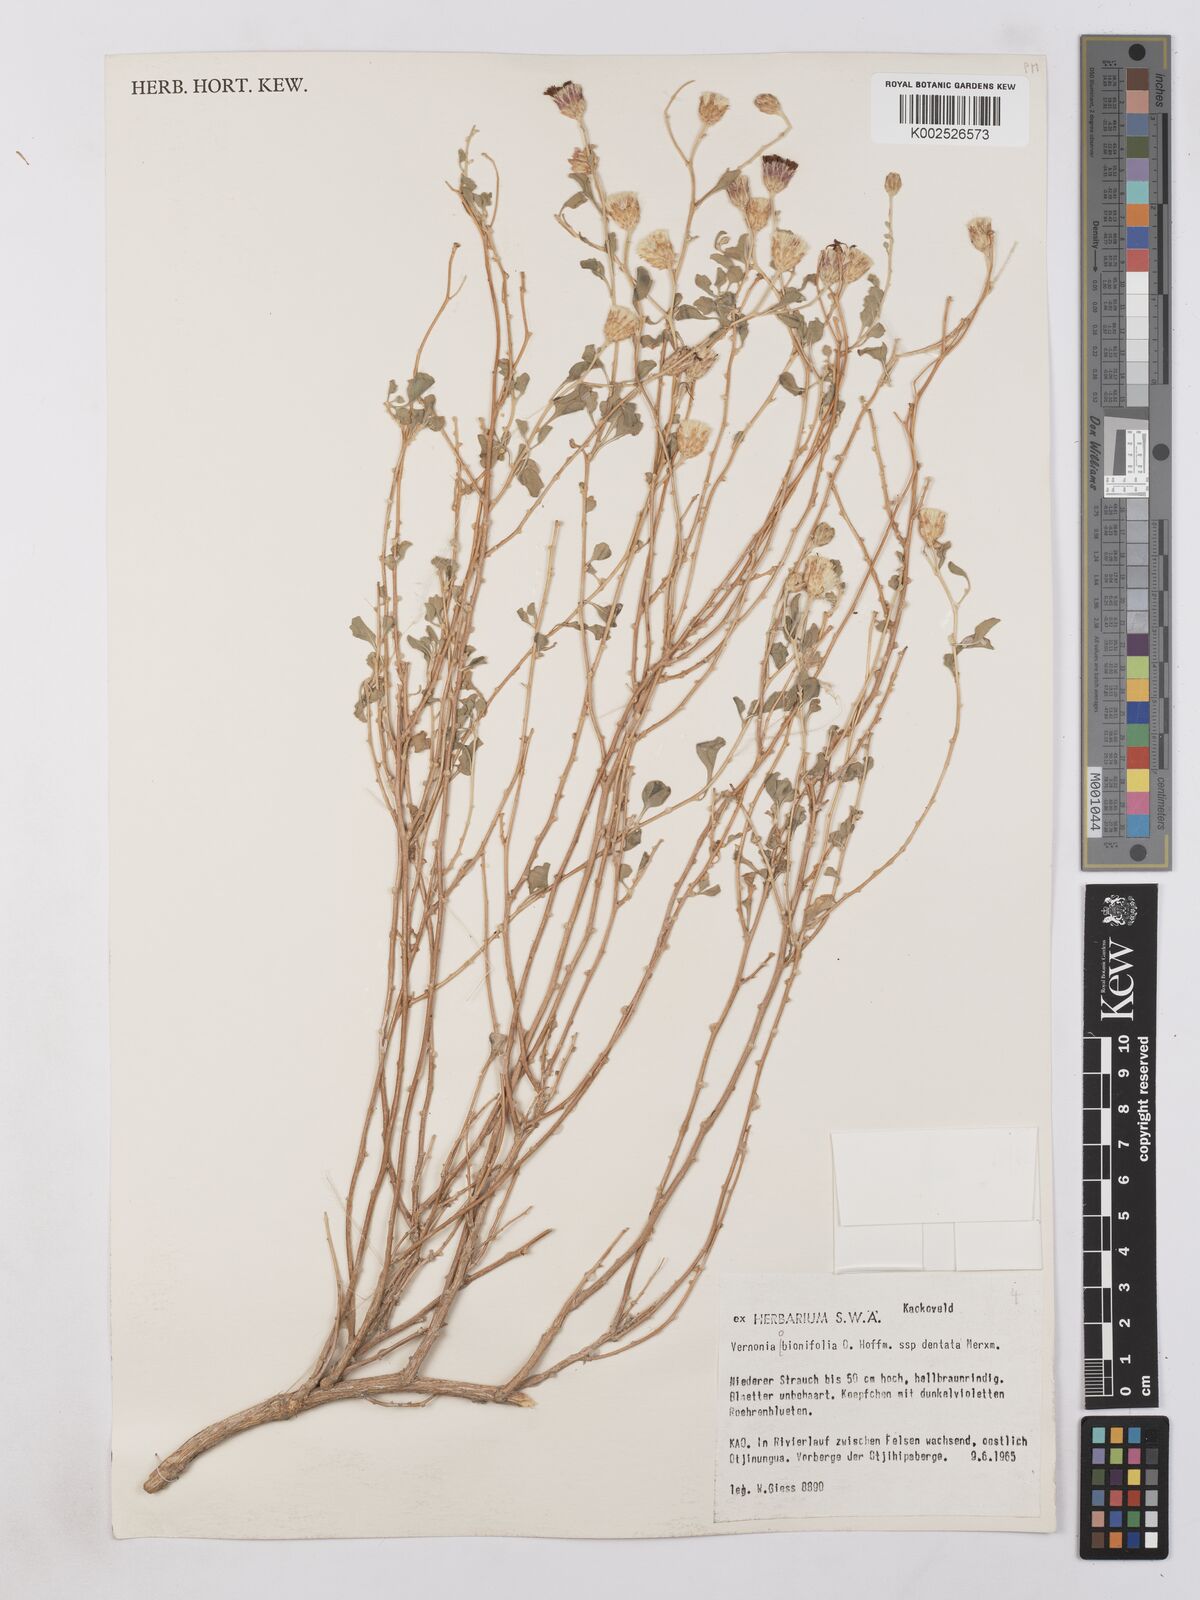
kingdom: Plantae
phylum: Tracheophyta
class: Magnoliopsida
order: Asterales
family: Asteraceae
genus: Namibithamnus
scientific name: Namibithamnus obionifolius
